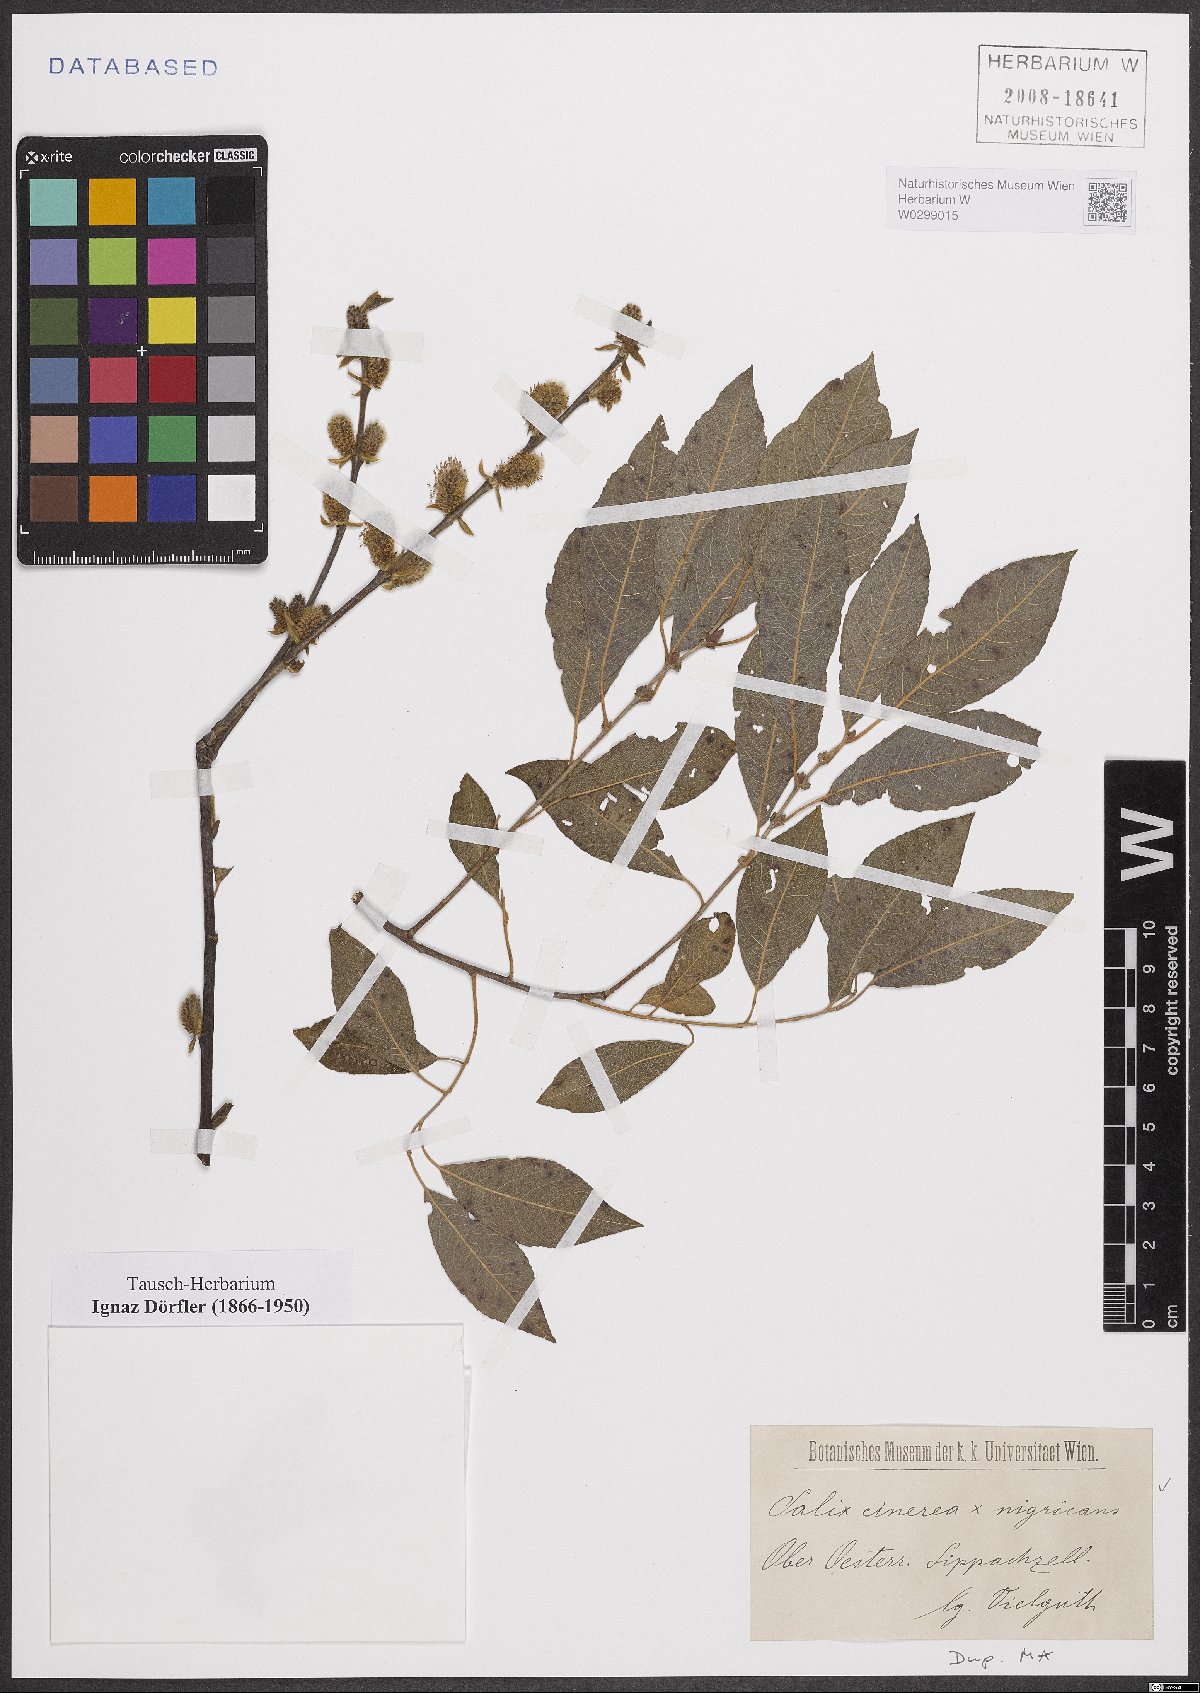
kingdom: Plantae
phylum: Tracheophyta
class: Magnoliopsida
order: Malpighiales
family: Salicaceae
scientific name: Salicaceae
